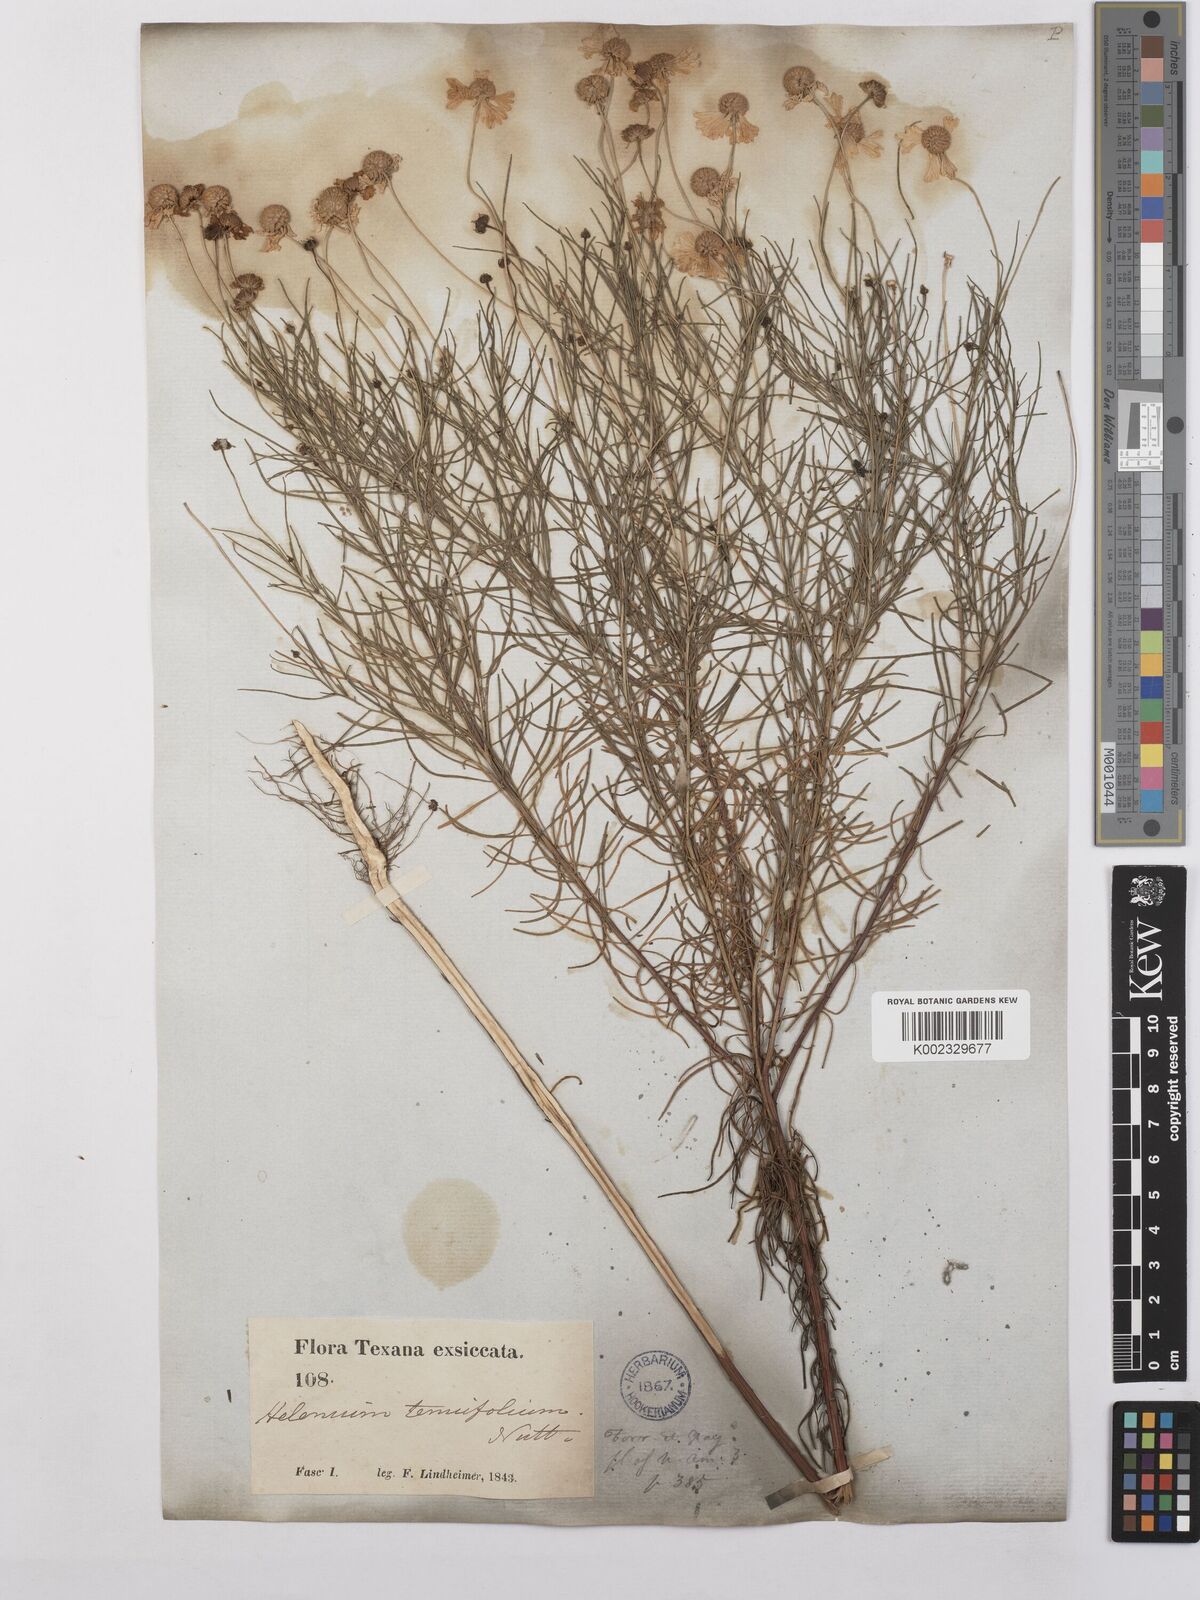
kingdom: Plantae
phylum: Tracheophyta
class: Magnoliopsida
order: Asterales
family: Asteraceae
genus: Helenium
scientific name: Helenium amarum
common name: Bitter sneezeweed
